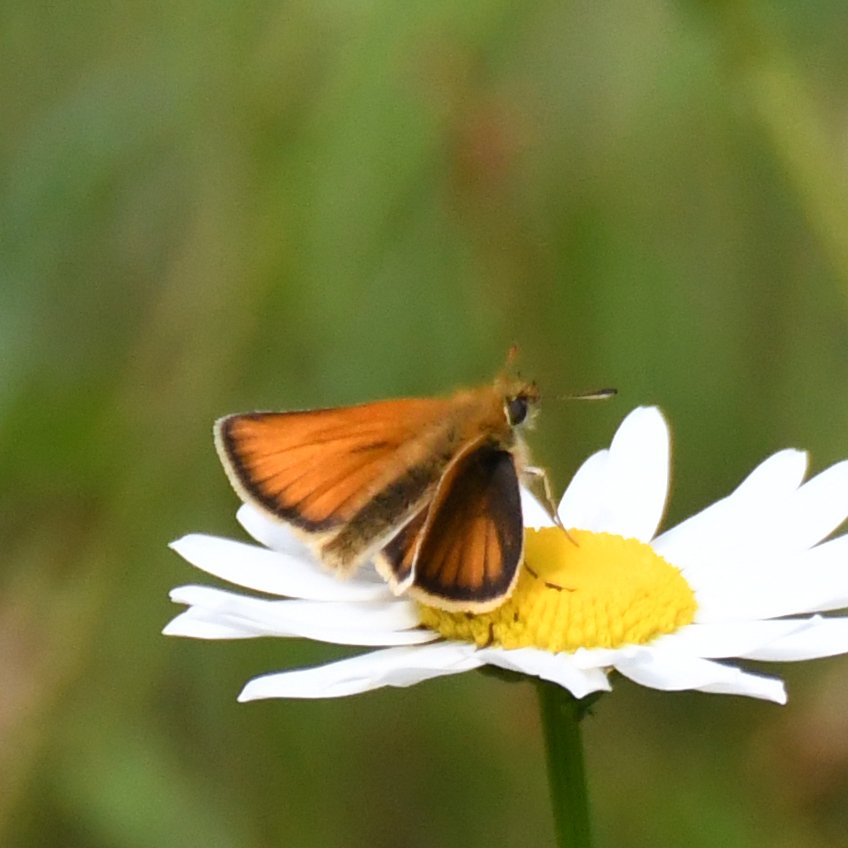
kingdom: Animalia
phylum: Arthropoda
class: Insecta
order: Lepidoptera
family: Hesperiidae
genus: Thymelicus
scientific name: Thymelicus lineola
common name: European Skipper
